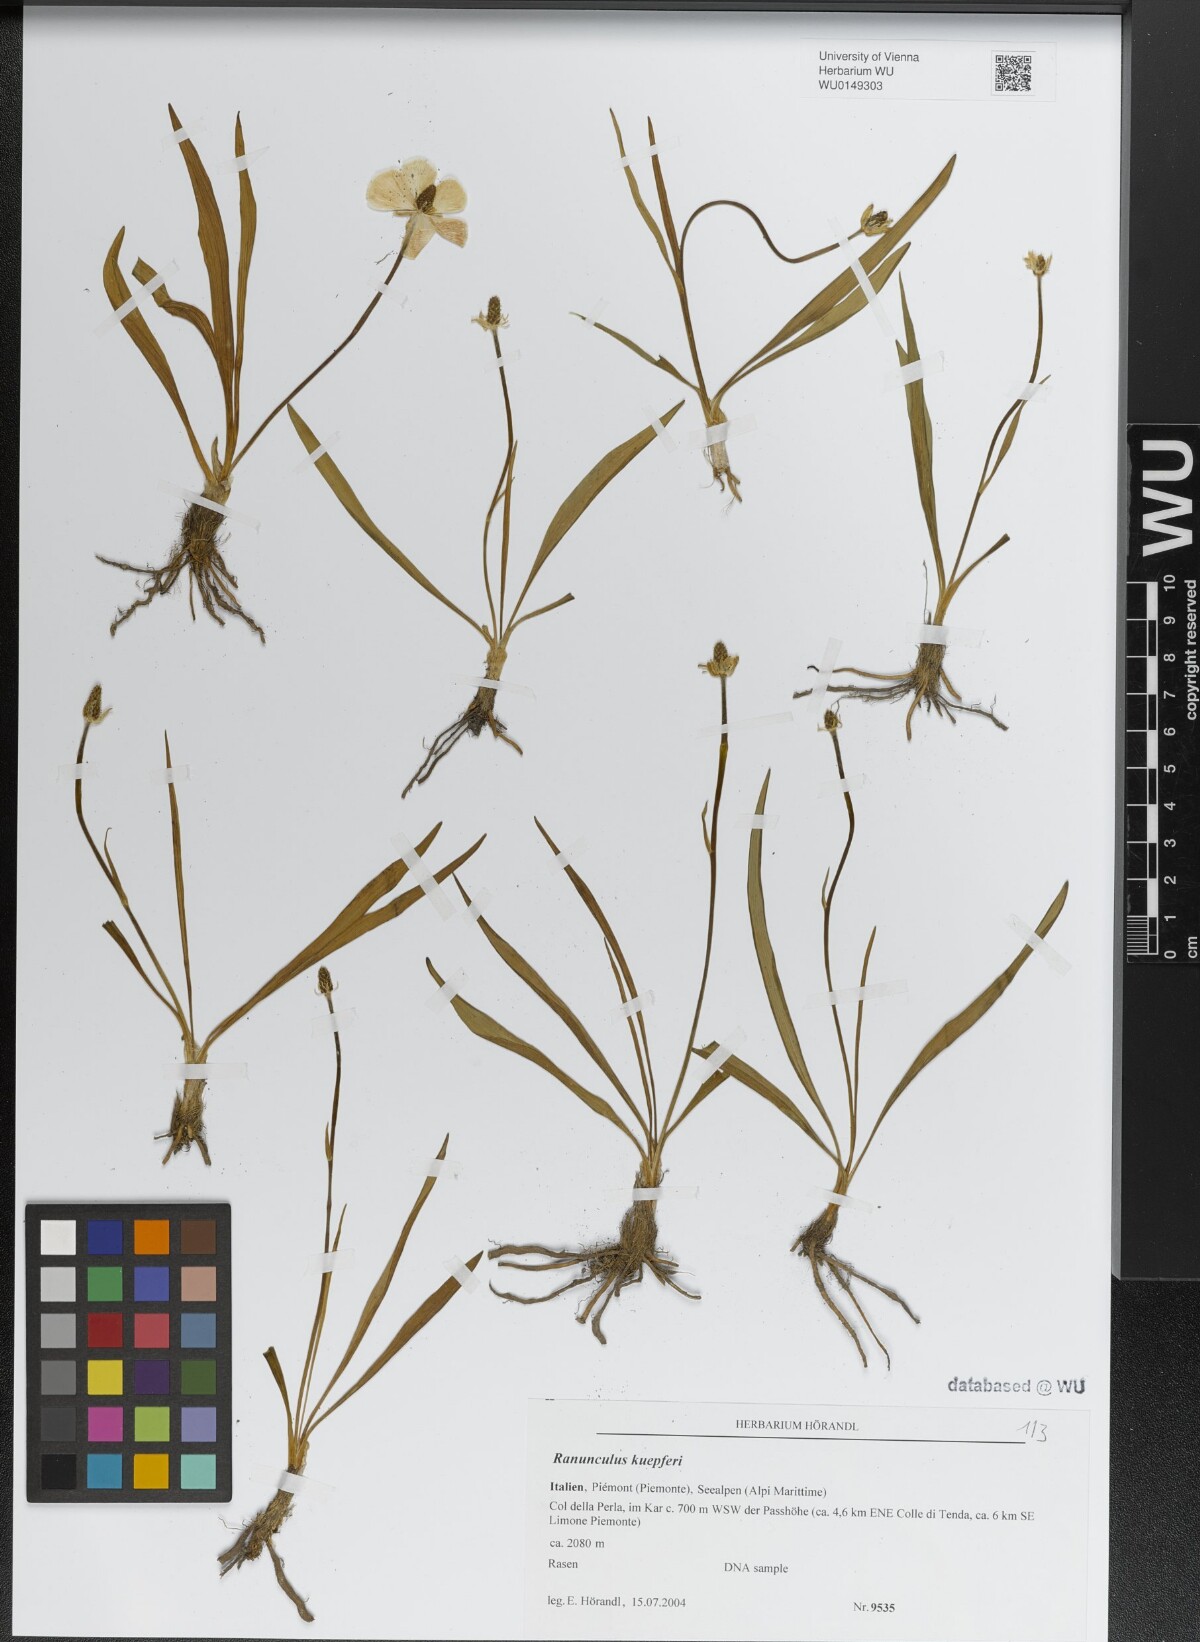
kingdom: Plantae
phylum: Tracheophyta
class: Magnoliopsida
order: Ranunculales
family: Ranunculaceae
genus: Ranunculus
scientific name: Ranunculus kuepferi
